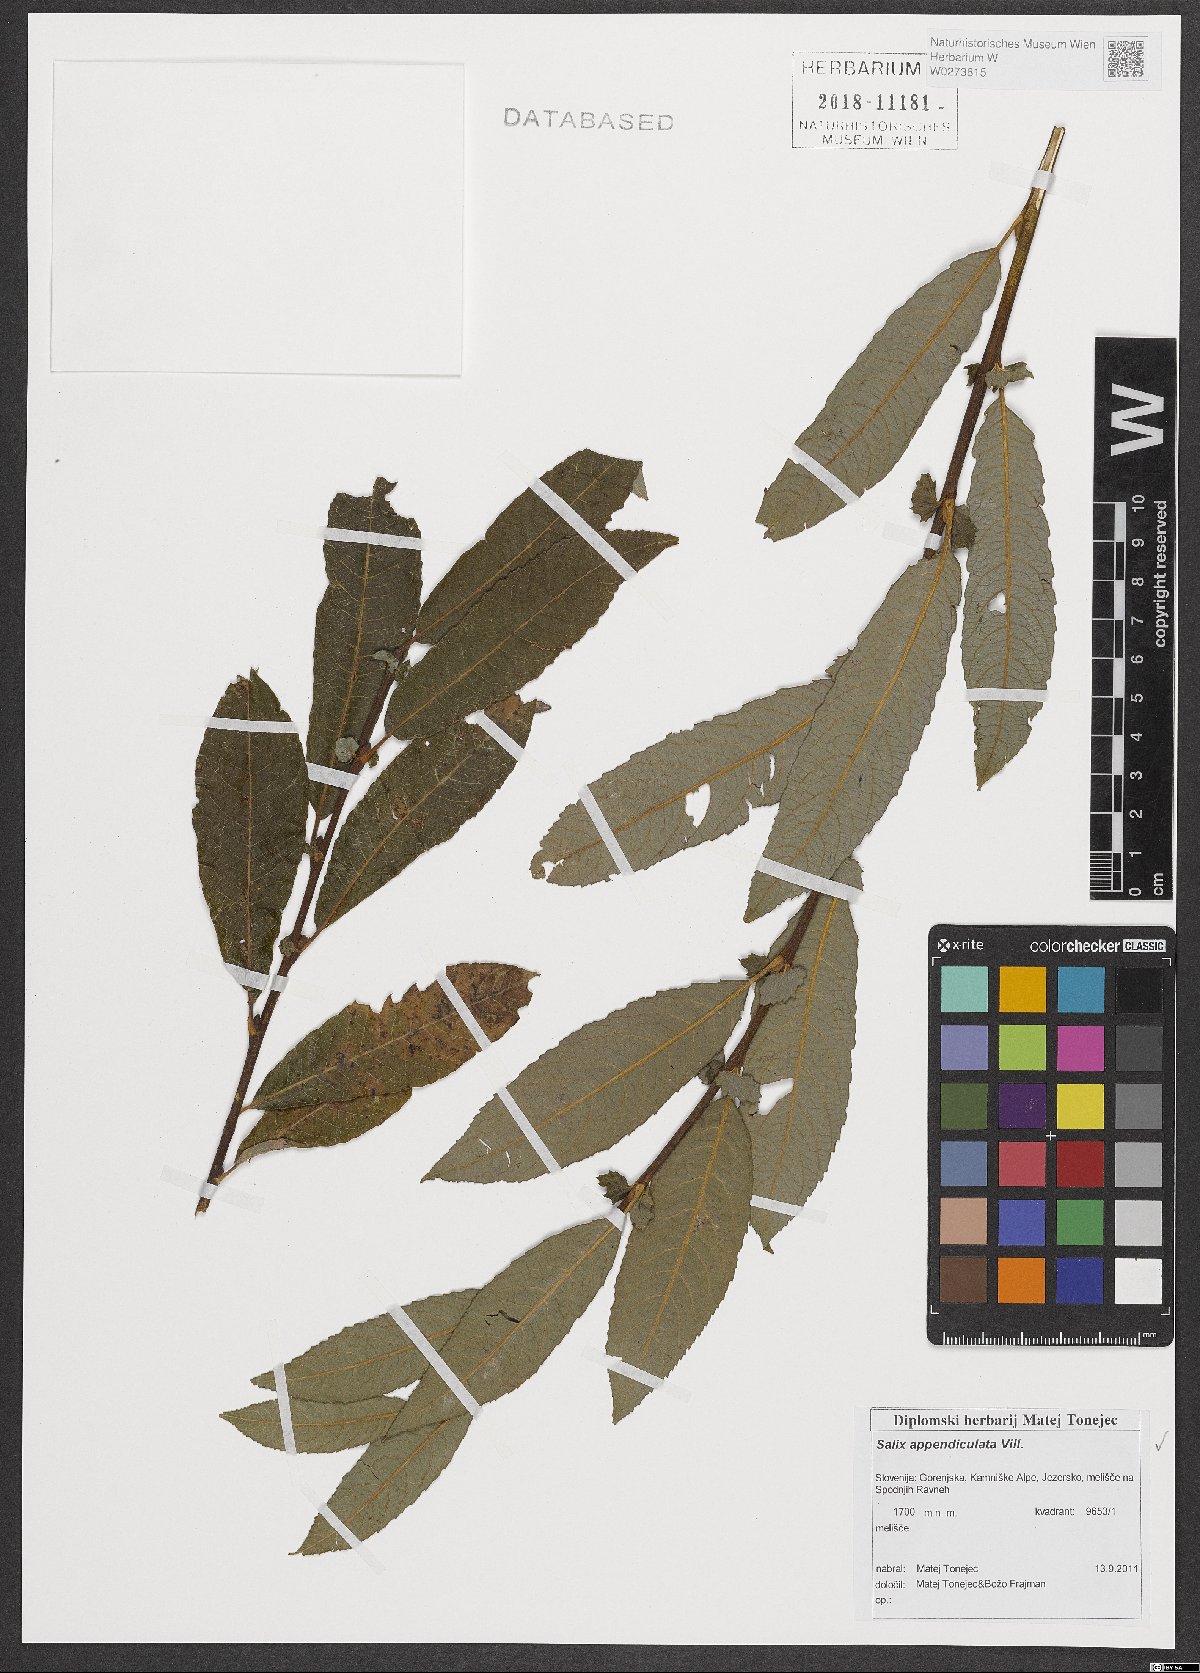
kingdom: Plantae
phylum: Tracheophyta
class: Magnoliopsida
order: Malpighiales
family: Salicaceae
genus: Salix
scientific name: Salix appendiculata
